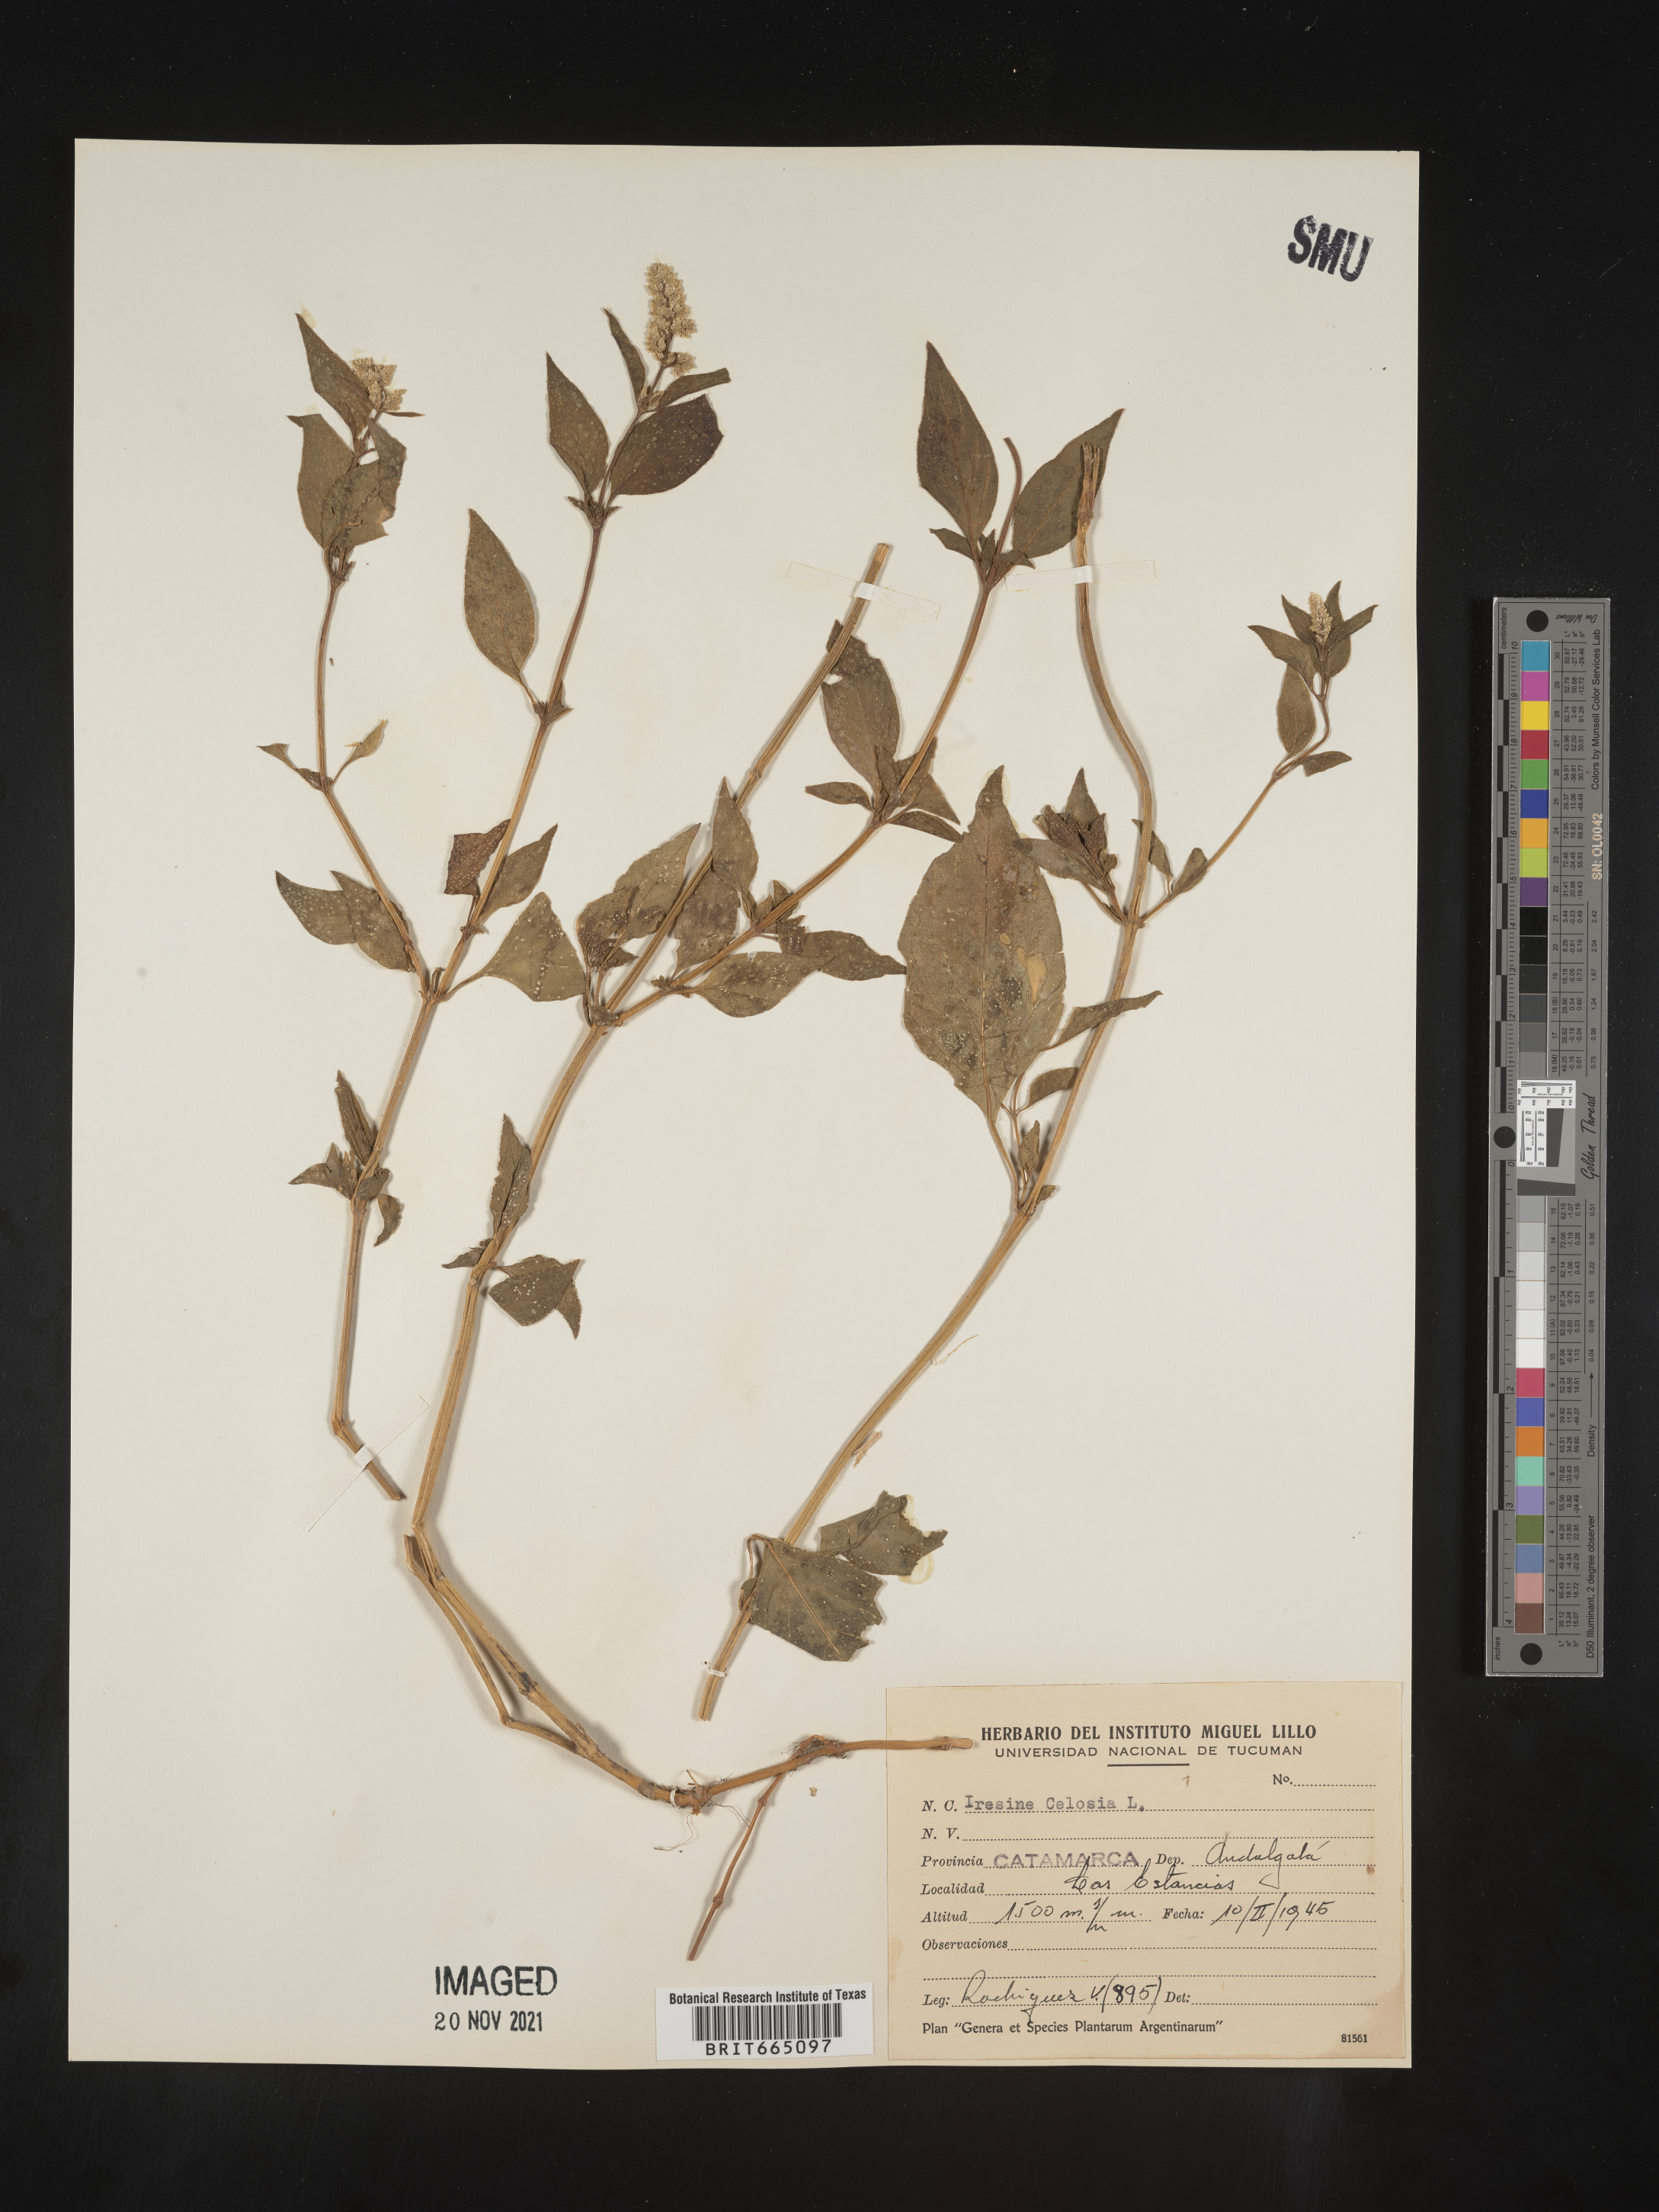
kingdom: Plantae
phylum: Tracheophyta
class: Magnoliopsida
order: Caryophyllales
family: Amaranthaceae
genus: Iresine
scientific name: Iresine
